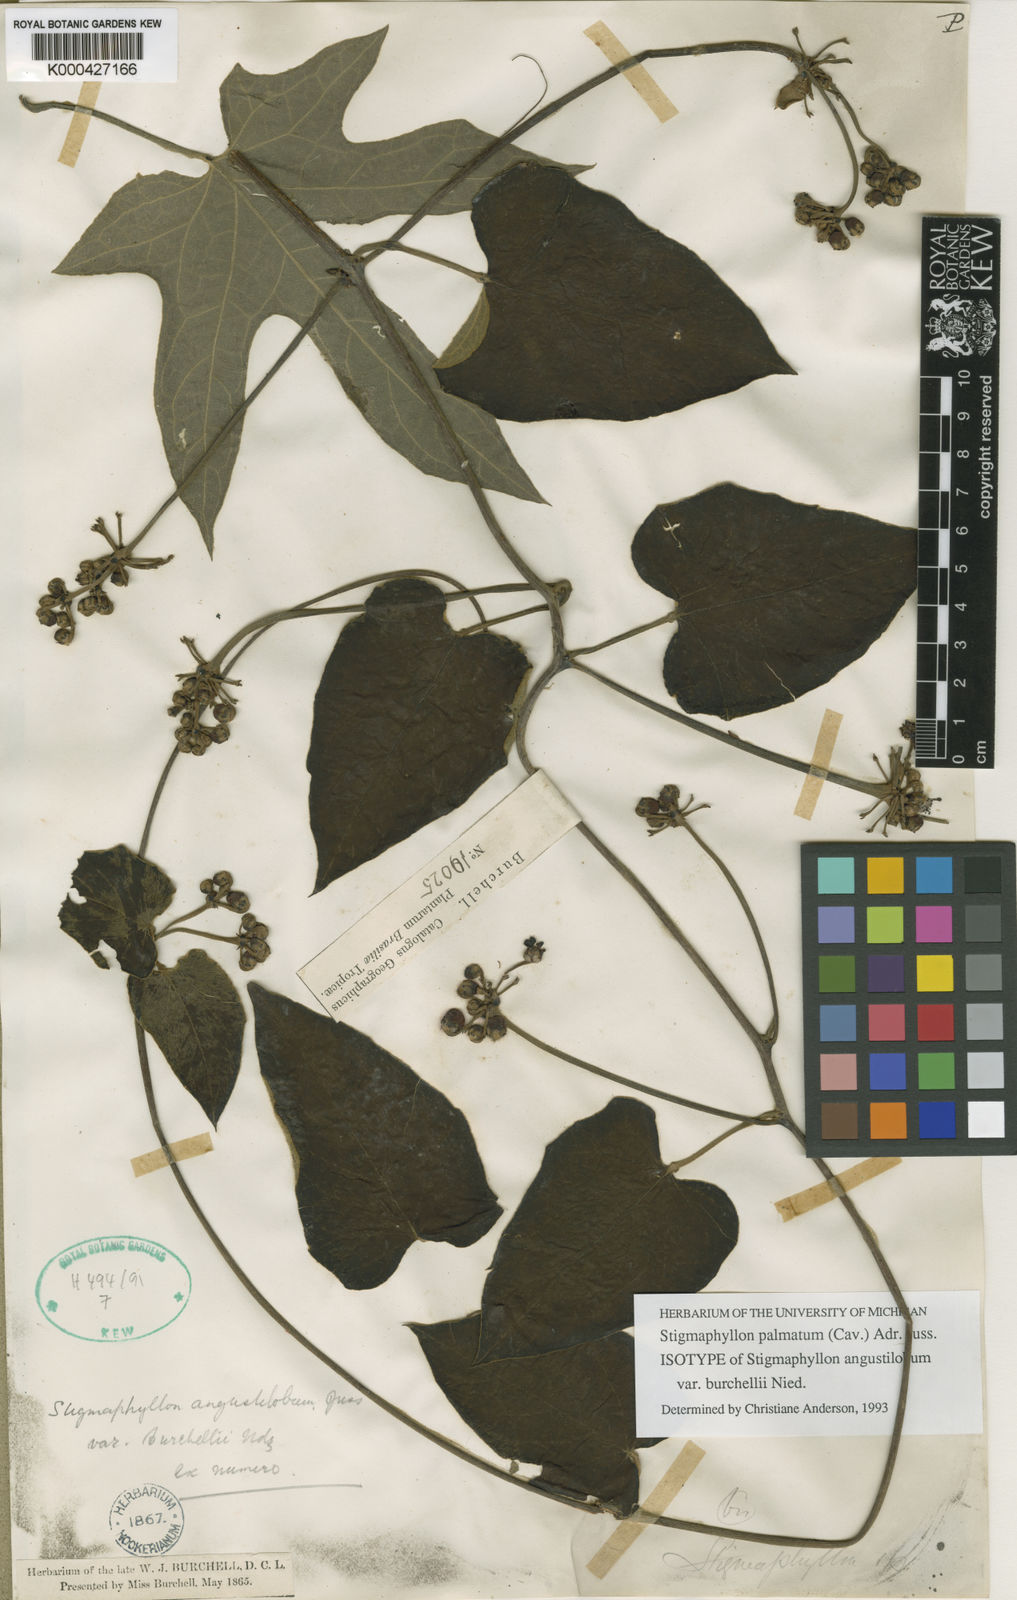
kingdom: Plantae
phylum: Tracheophyta
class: Magnoliopsida
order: Malpighiales
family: Malpighiaceae
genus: Stigmaphyllon
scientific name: Stigmaphyllon palmatum
